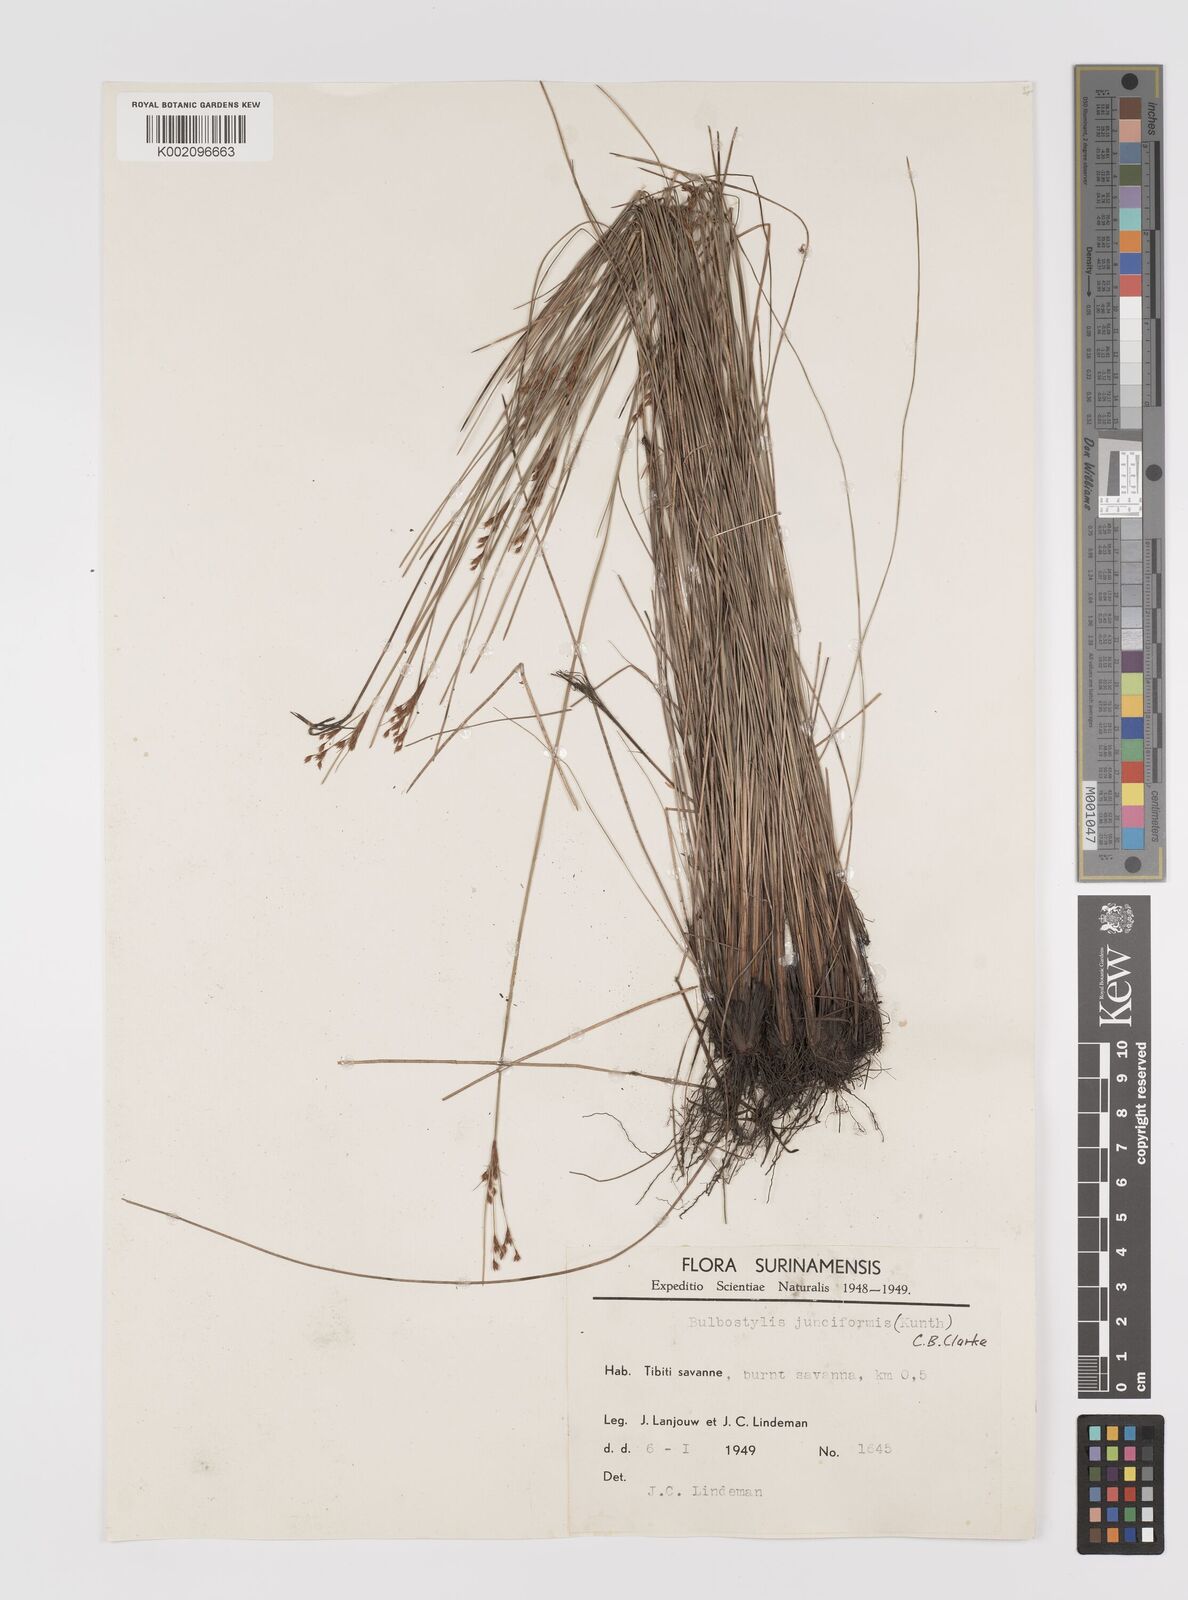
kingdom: Plantae
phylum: Tracheophyta
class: Liliopsida
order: Poales
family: Cyperaceae
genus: Bulbostylis
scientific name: Bulbostylis junciformis
